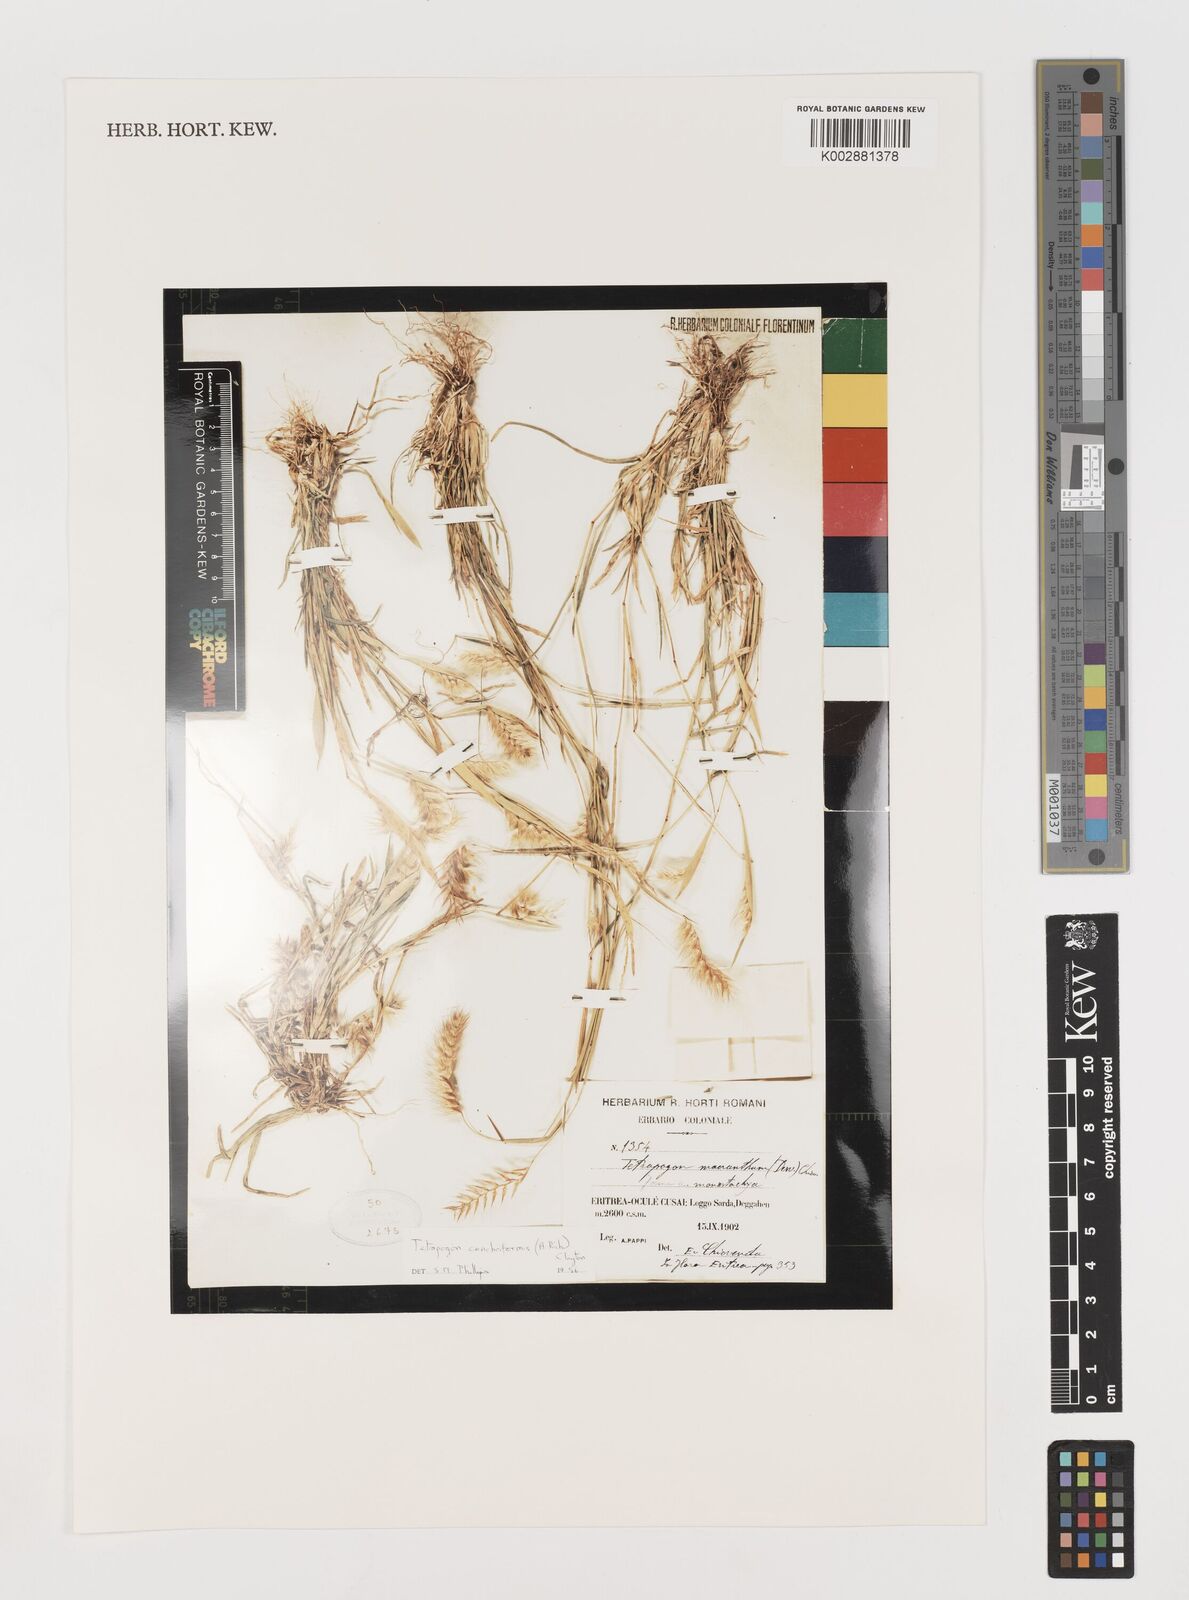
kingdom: Plantae
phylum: Tracheophyta
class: Liliopsida
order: Poales
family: Poaceae
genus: Tetrapogon
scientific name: Tetrapogon cenchriformis
